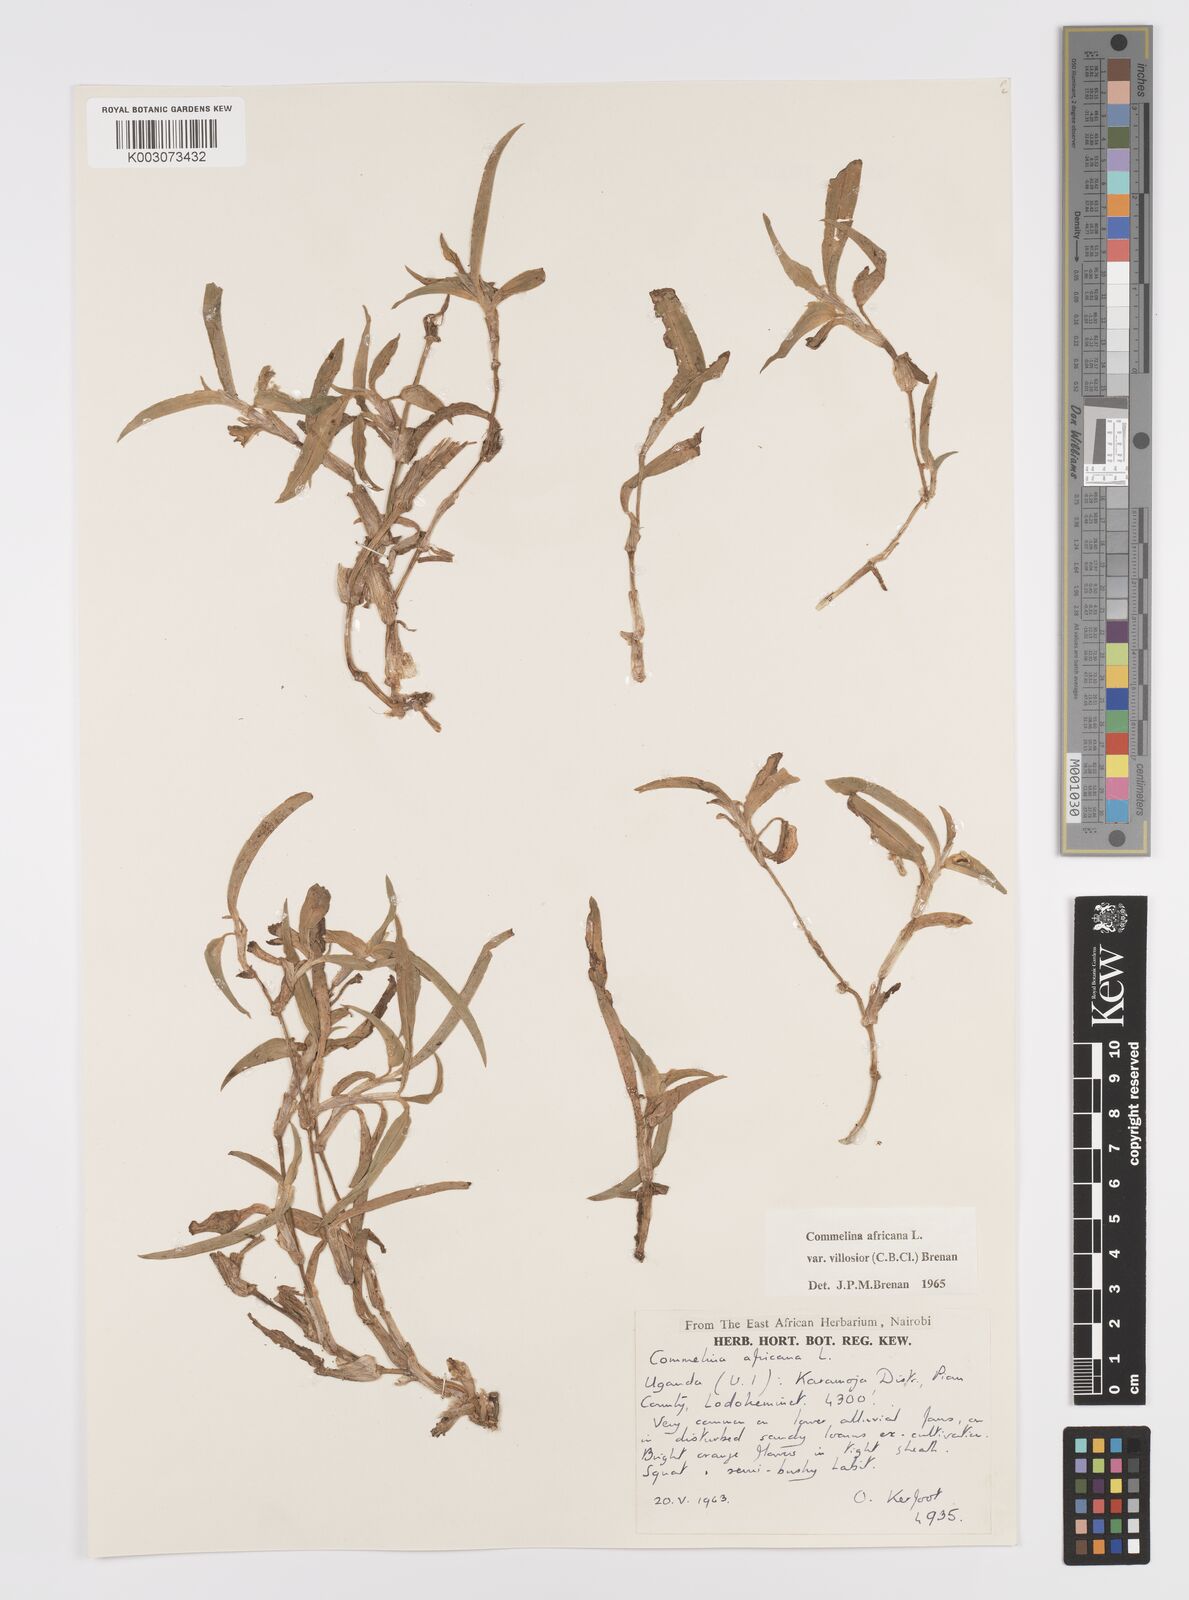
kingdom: Plantae
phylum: Tracheophyta
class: Liliopsida
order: Commelinales
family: Commelinaceae
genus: Commelina
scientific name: Commelina africana
